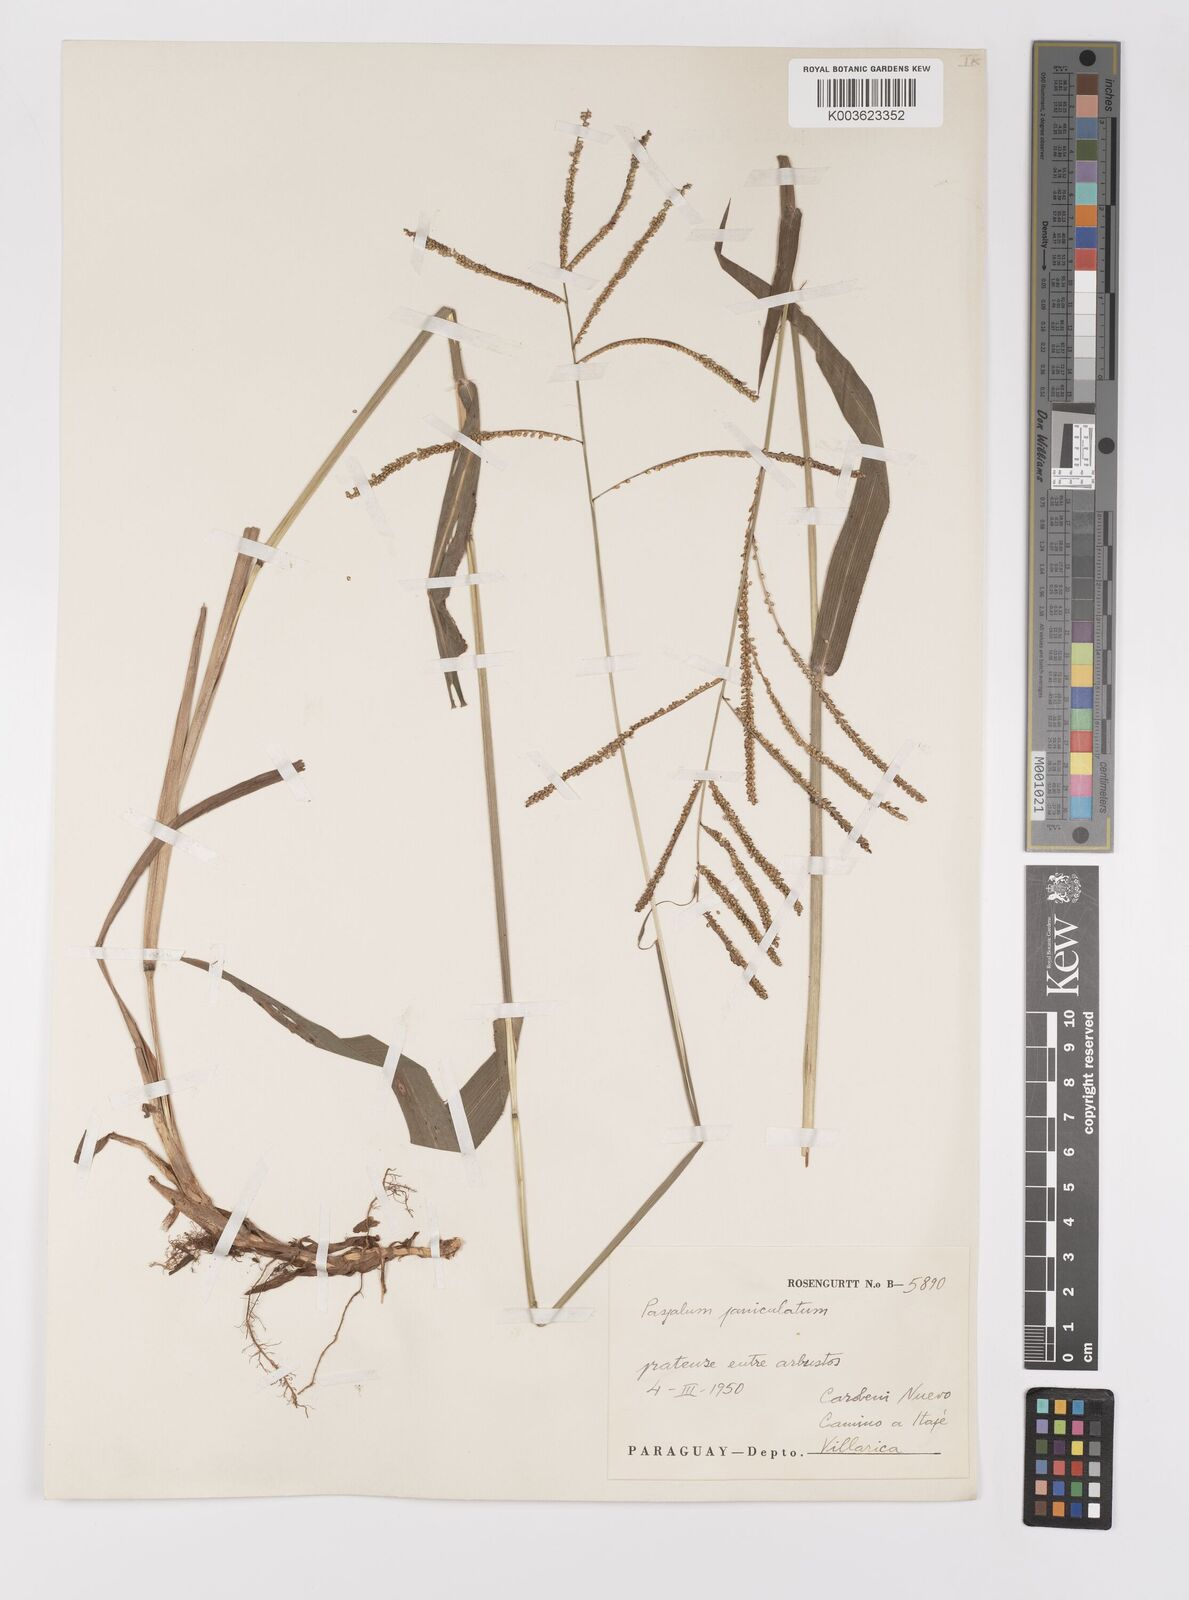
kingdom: Plantae
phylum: Tracheophyta
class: Liliopsida
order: Poales
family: Poaceae
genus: Paspalum
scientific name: Paspalum juergensii
